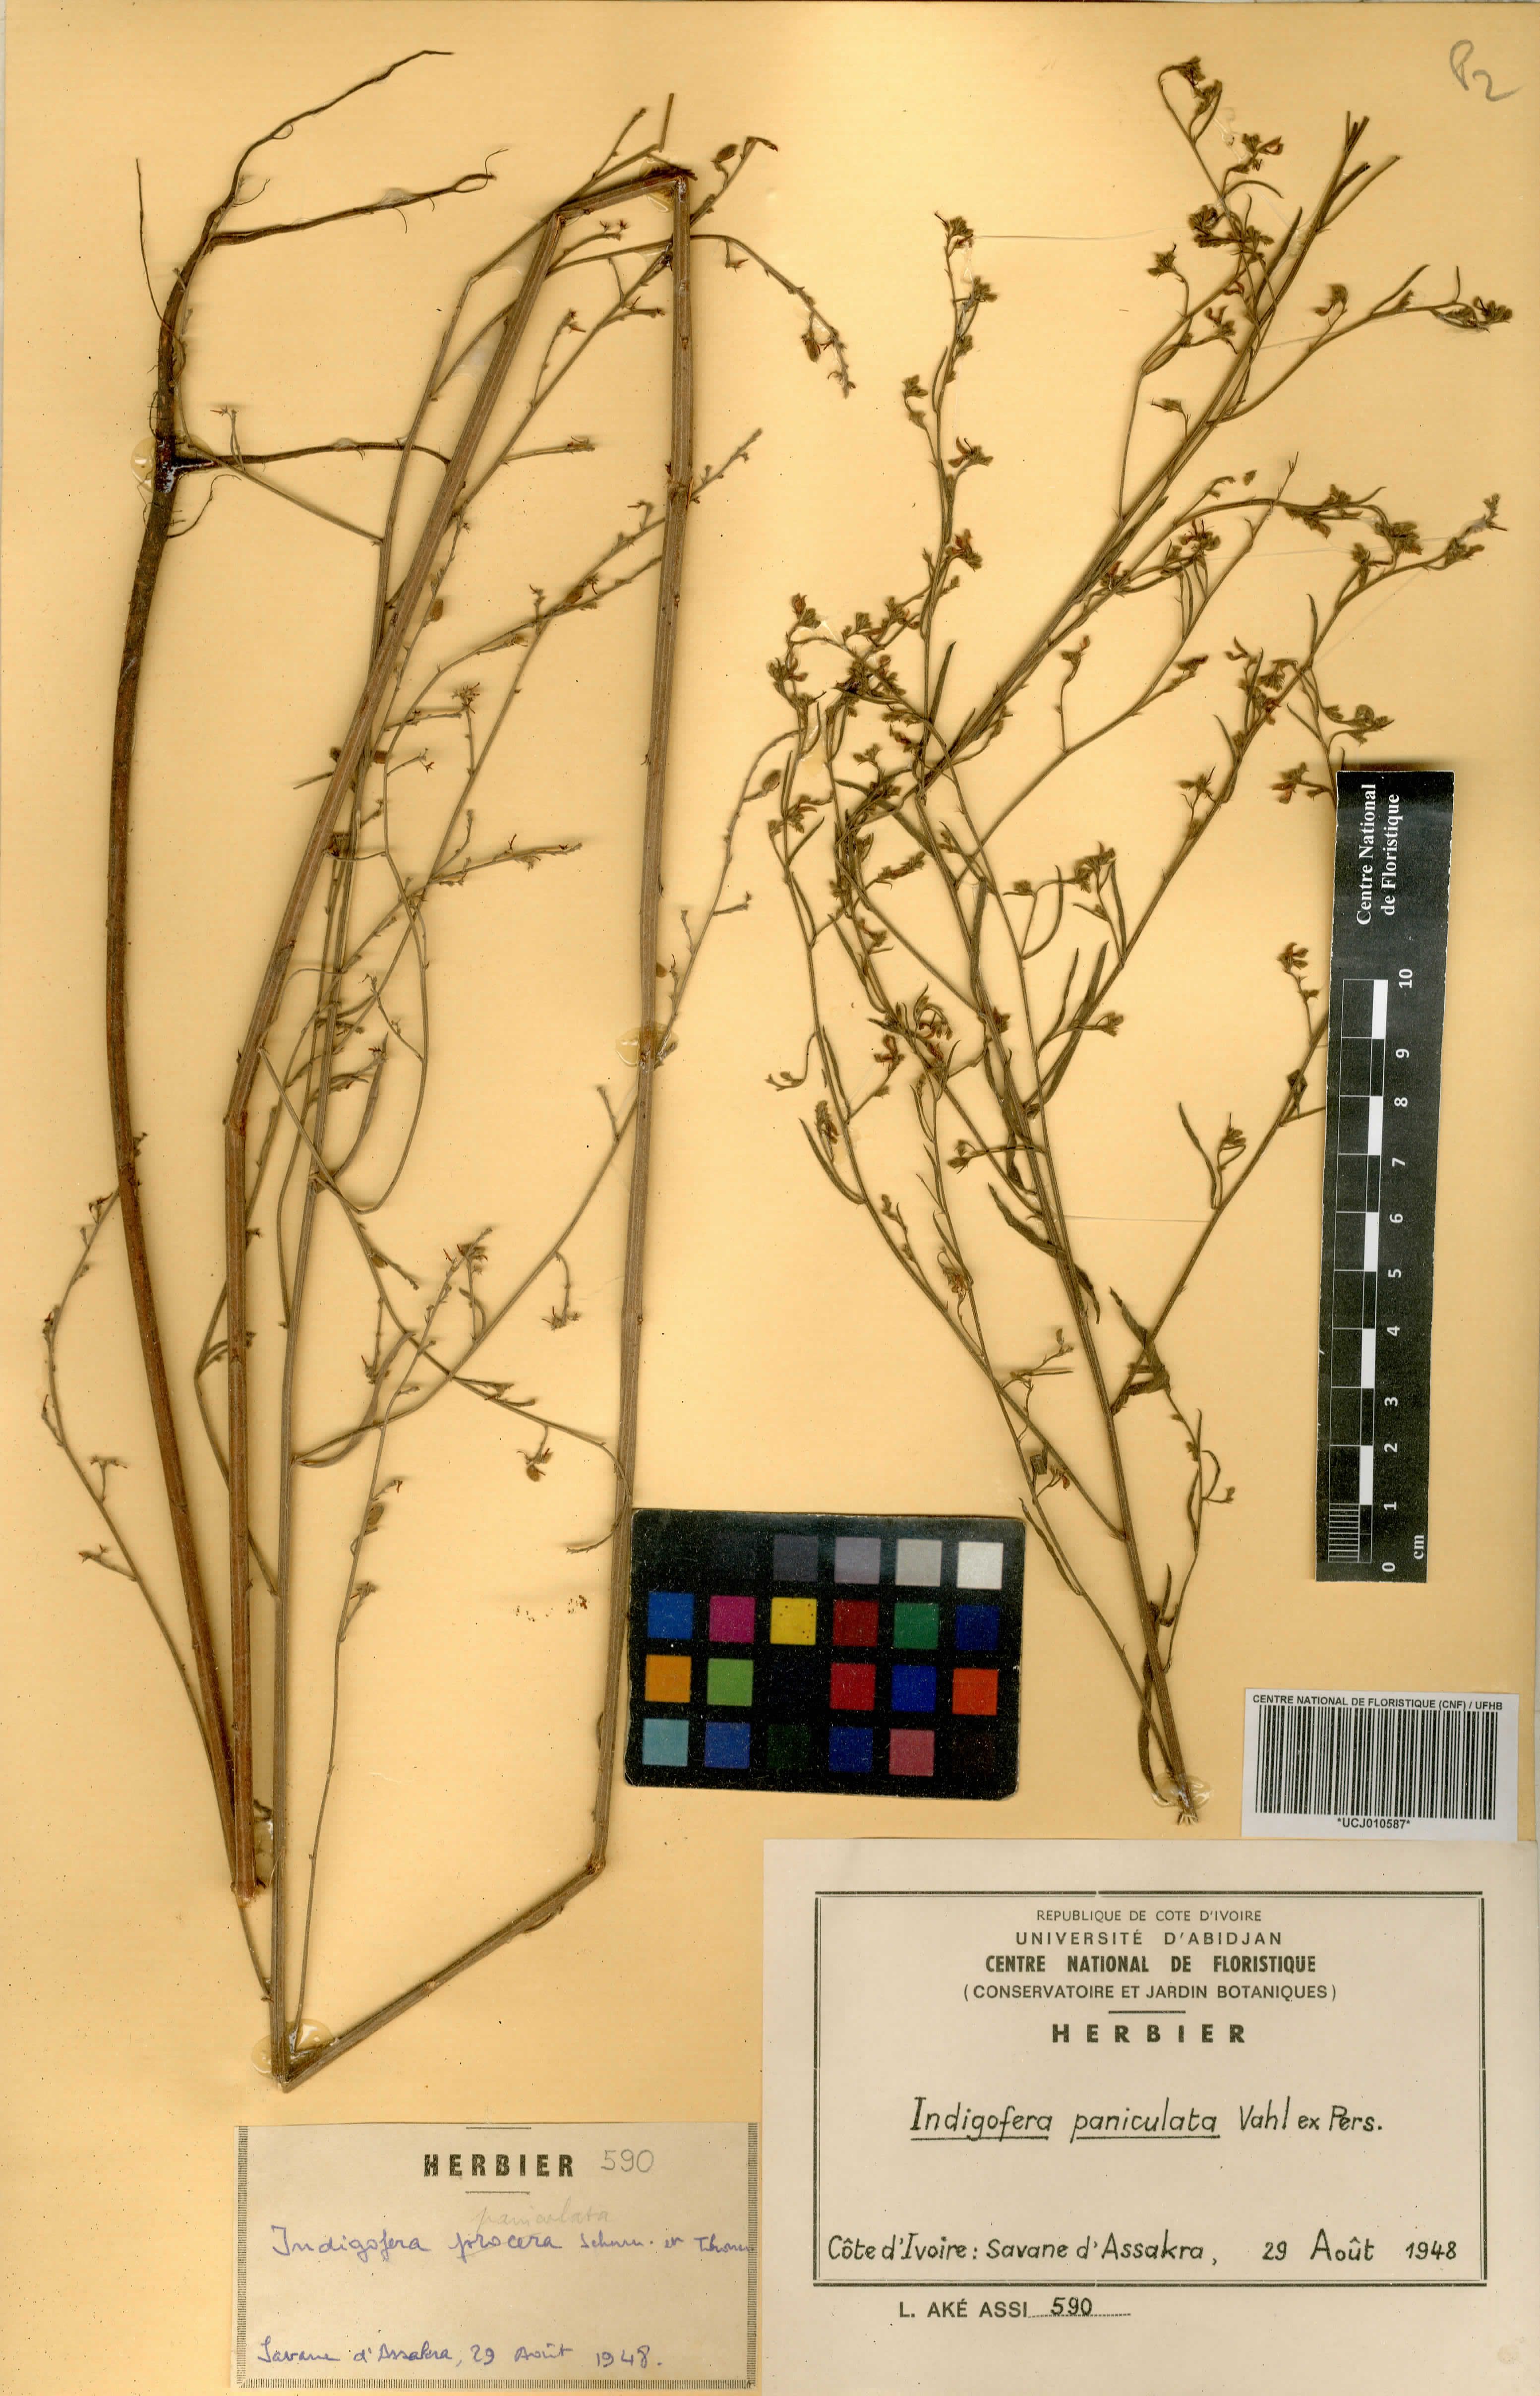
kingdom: Plantae
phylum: Tracheophyta
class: Magnoliopsida
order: Fabales
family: Fabaceae
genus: Indigofera
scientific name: Indigofera paniculata
